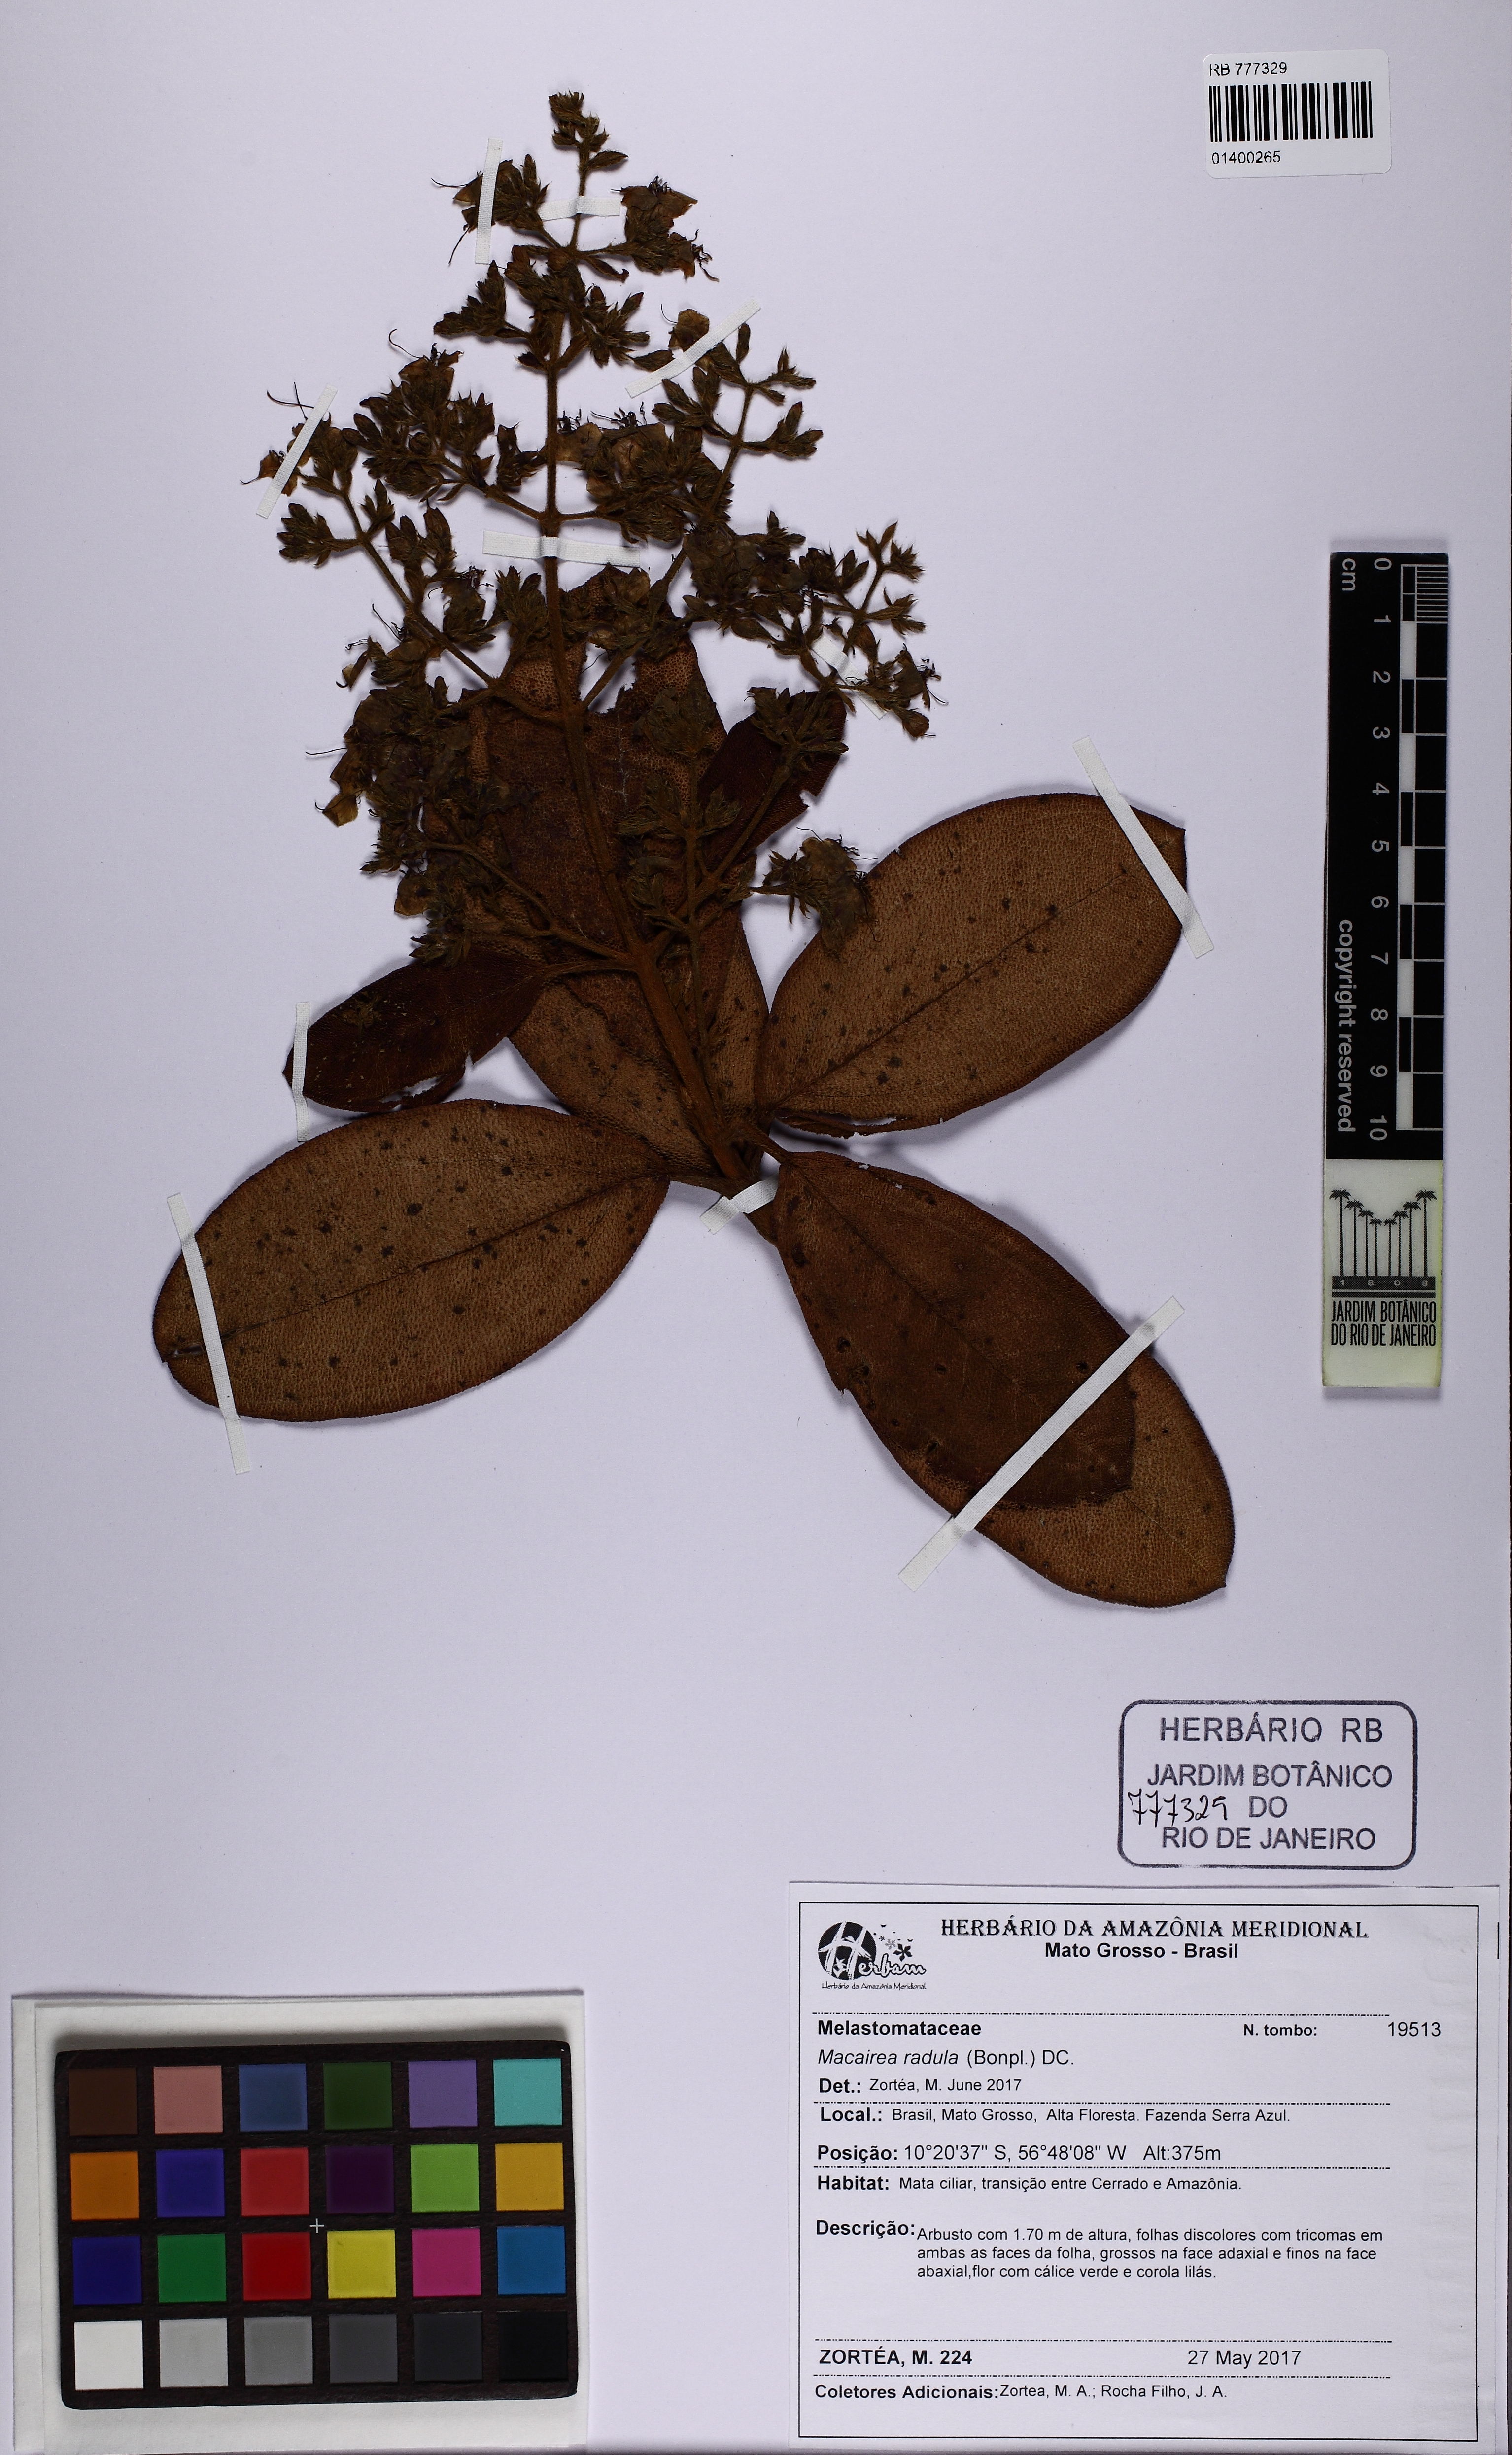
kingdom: Plantae
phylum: Tracheophyta
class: Magnoliopsida
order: Myrtales
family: Melastomataceae
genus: Macairea
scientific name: Macairea radula
